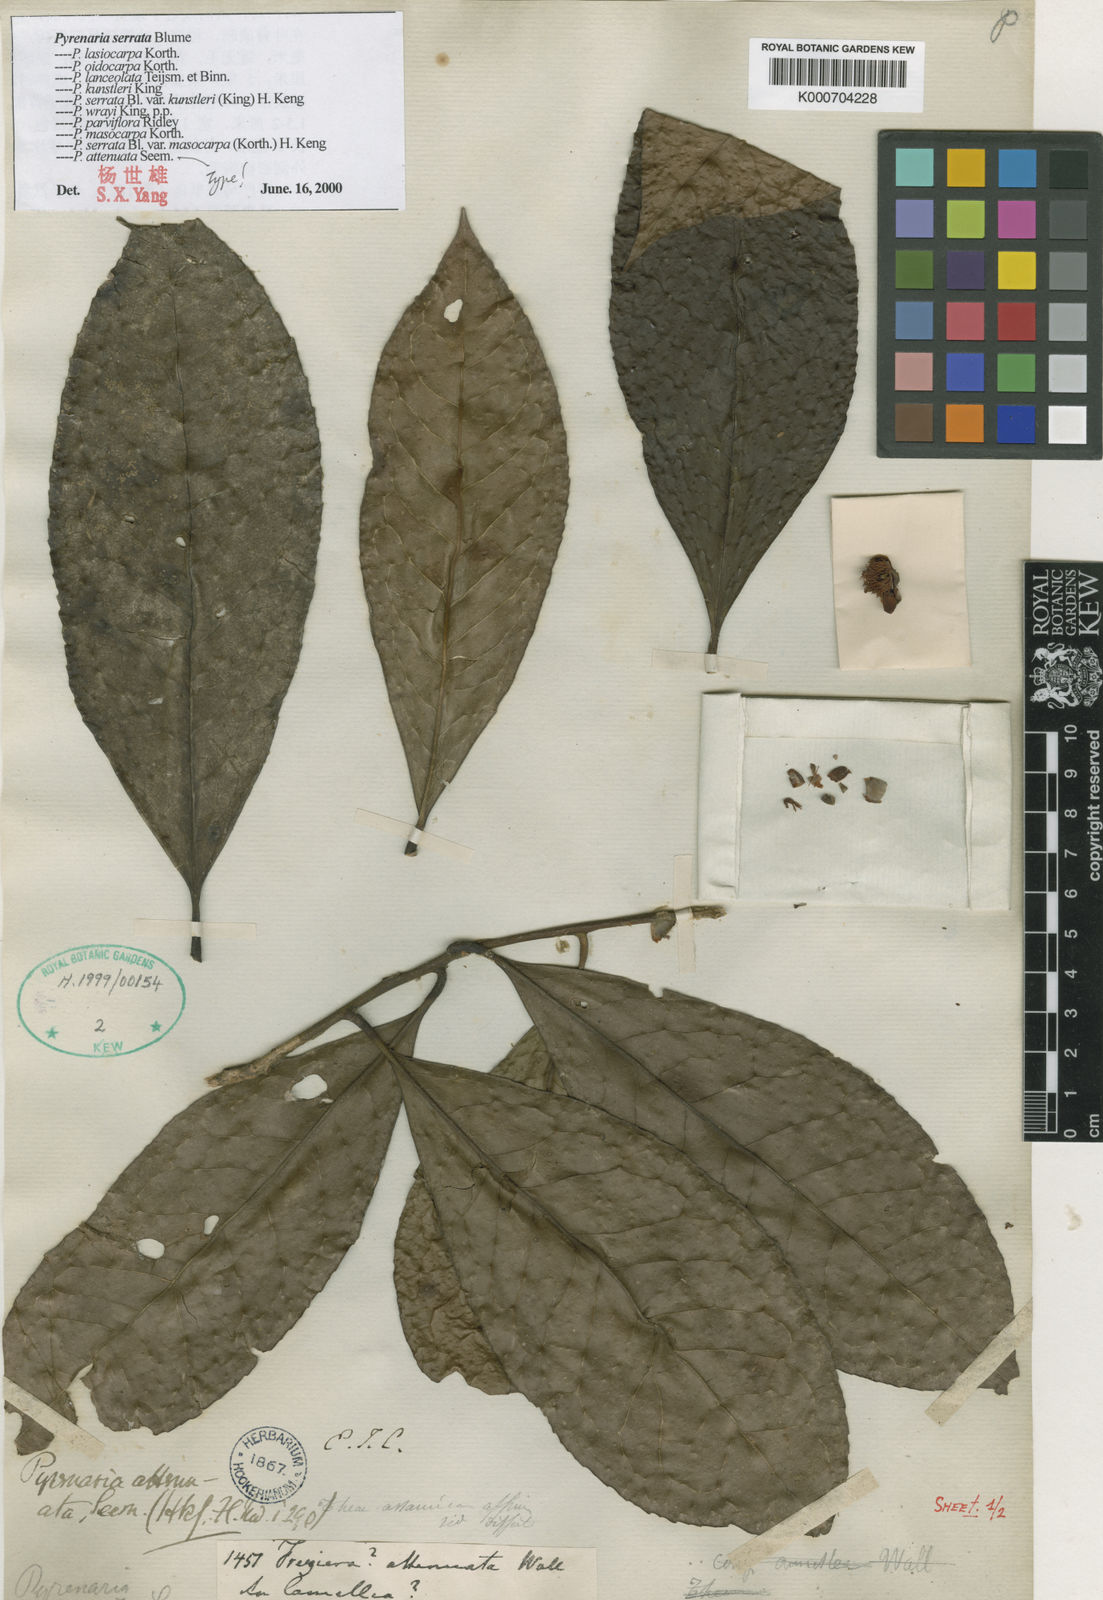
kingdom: Plantae
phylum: Tracheophyta
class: Magnoliopsida
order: Ericales
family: Theaceae
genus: Pyrenaria
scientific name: Pyrenaria attenuata
